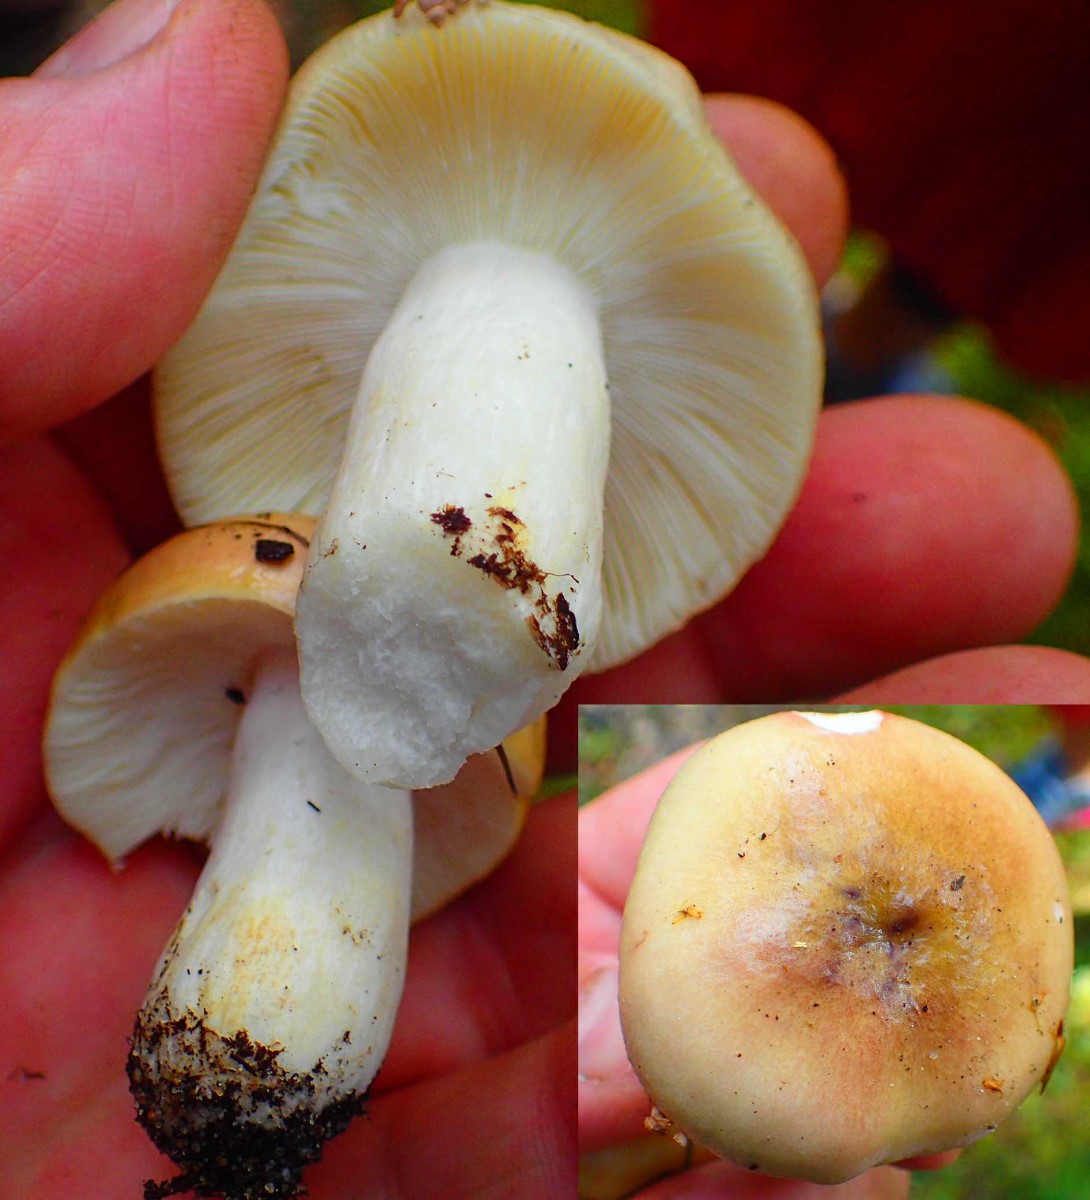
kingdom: Fungi
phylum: Basidiomycota
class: Agaricomycetes
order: Russulales
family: Russulaceae
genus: Russula
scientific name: Russula ochroleuca
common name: okkergul skørhat
